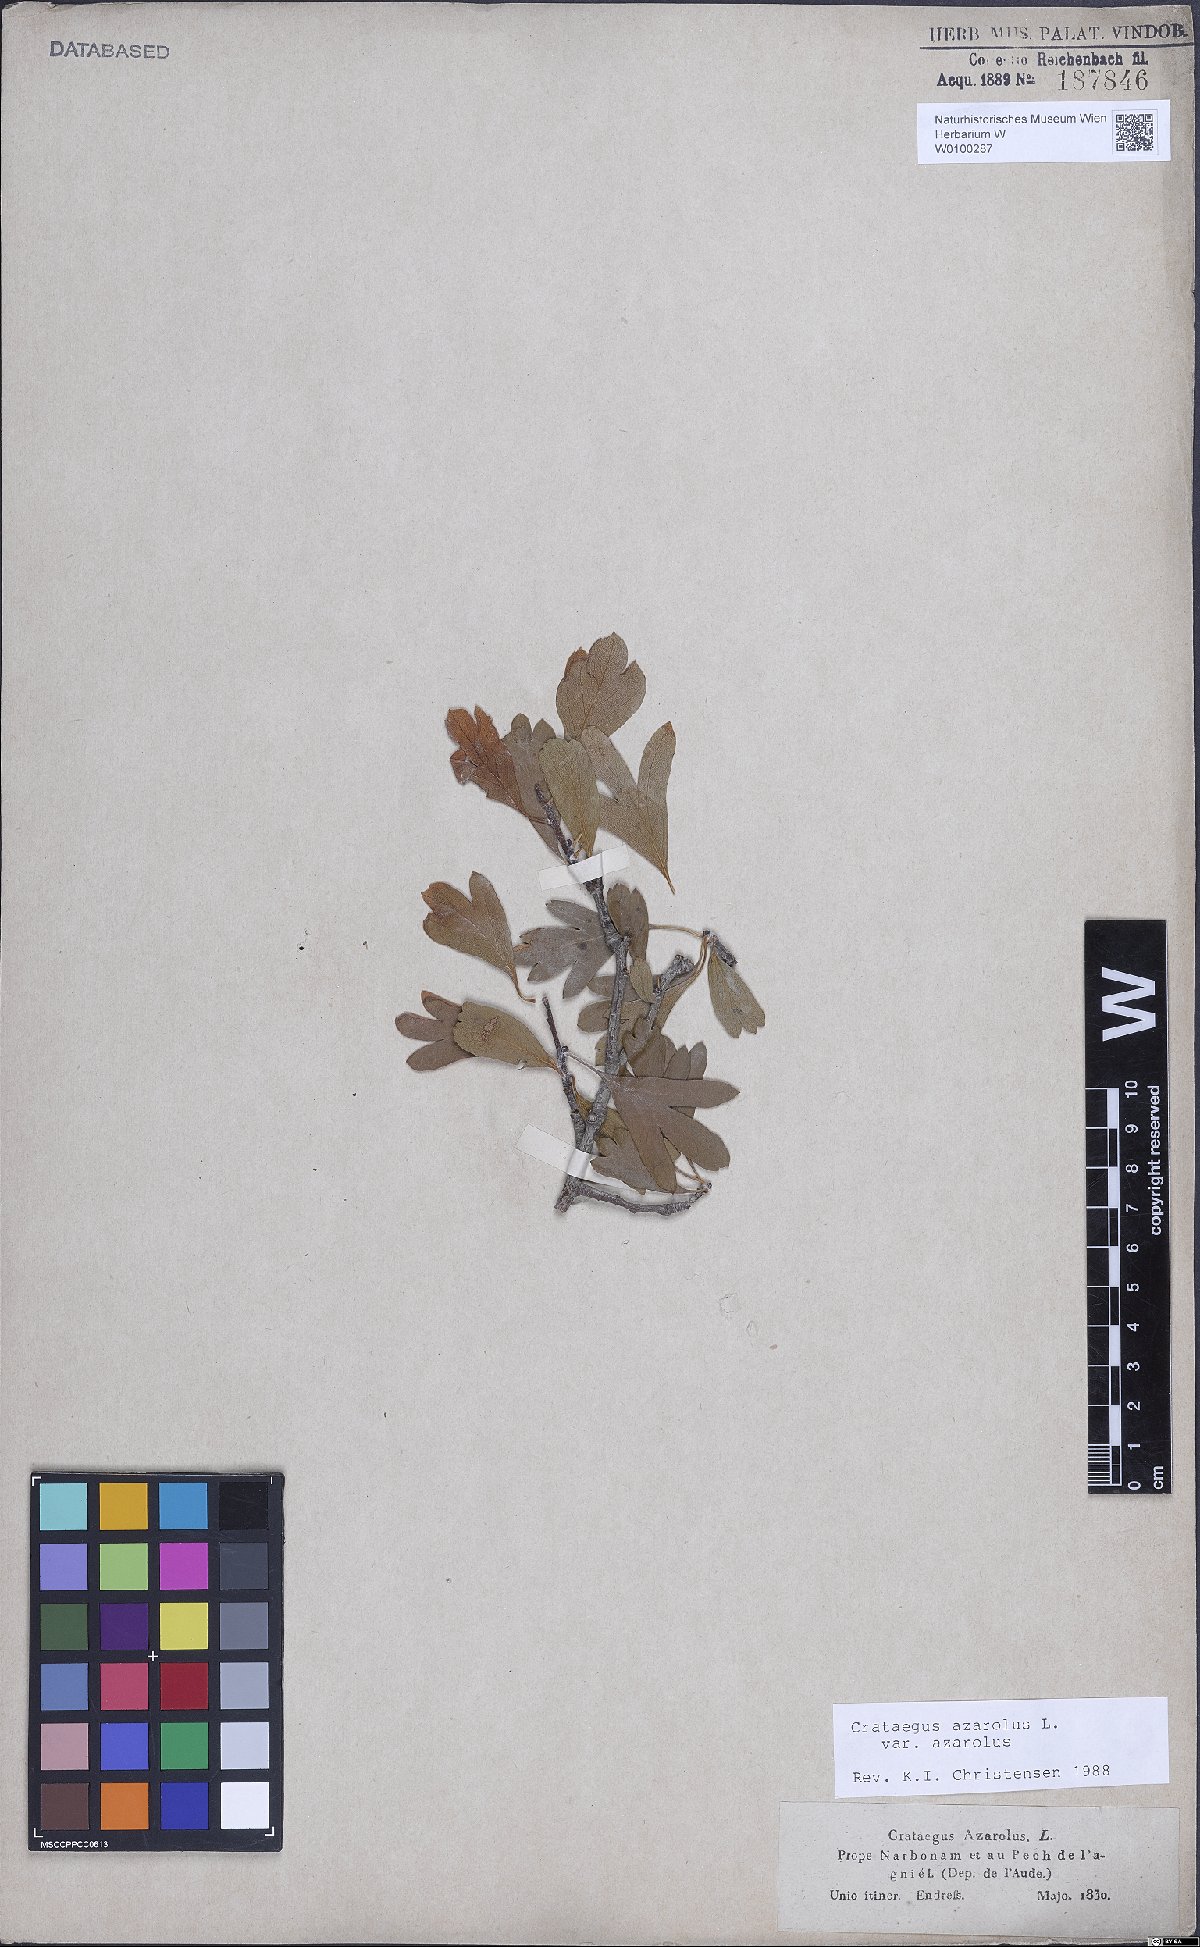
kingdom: Plantae
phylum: Tracheophyta
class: Magnoliopsida
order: Rosales
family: Rosaceae
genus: Crataegus
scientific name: Crataegus azarolus
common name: Azarole
